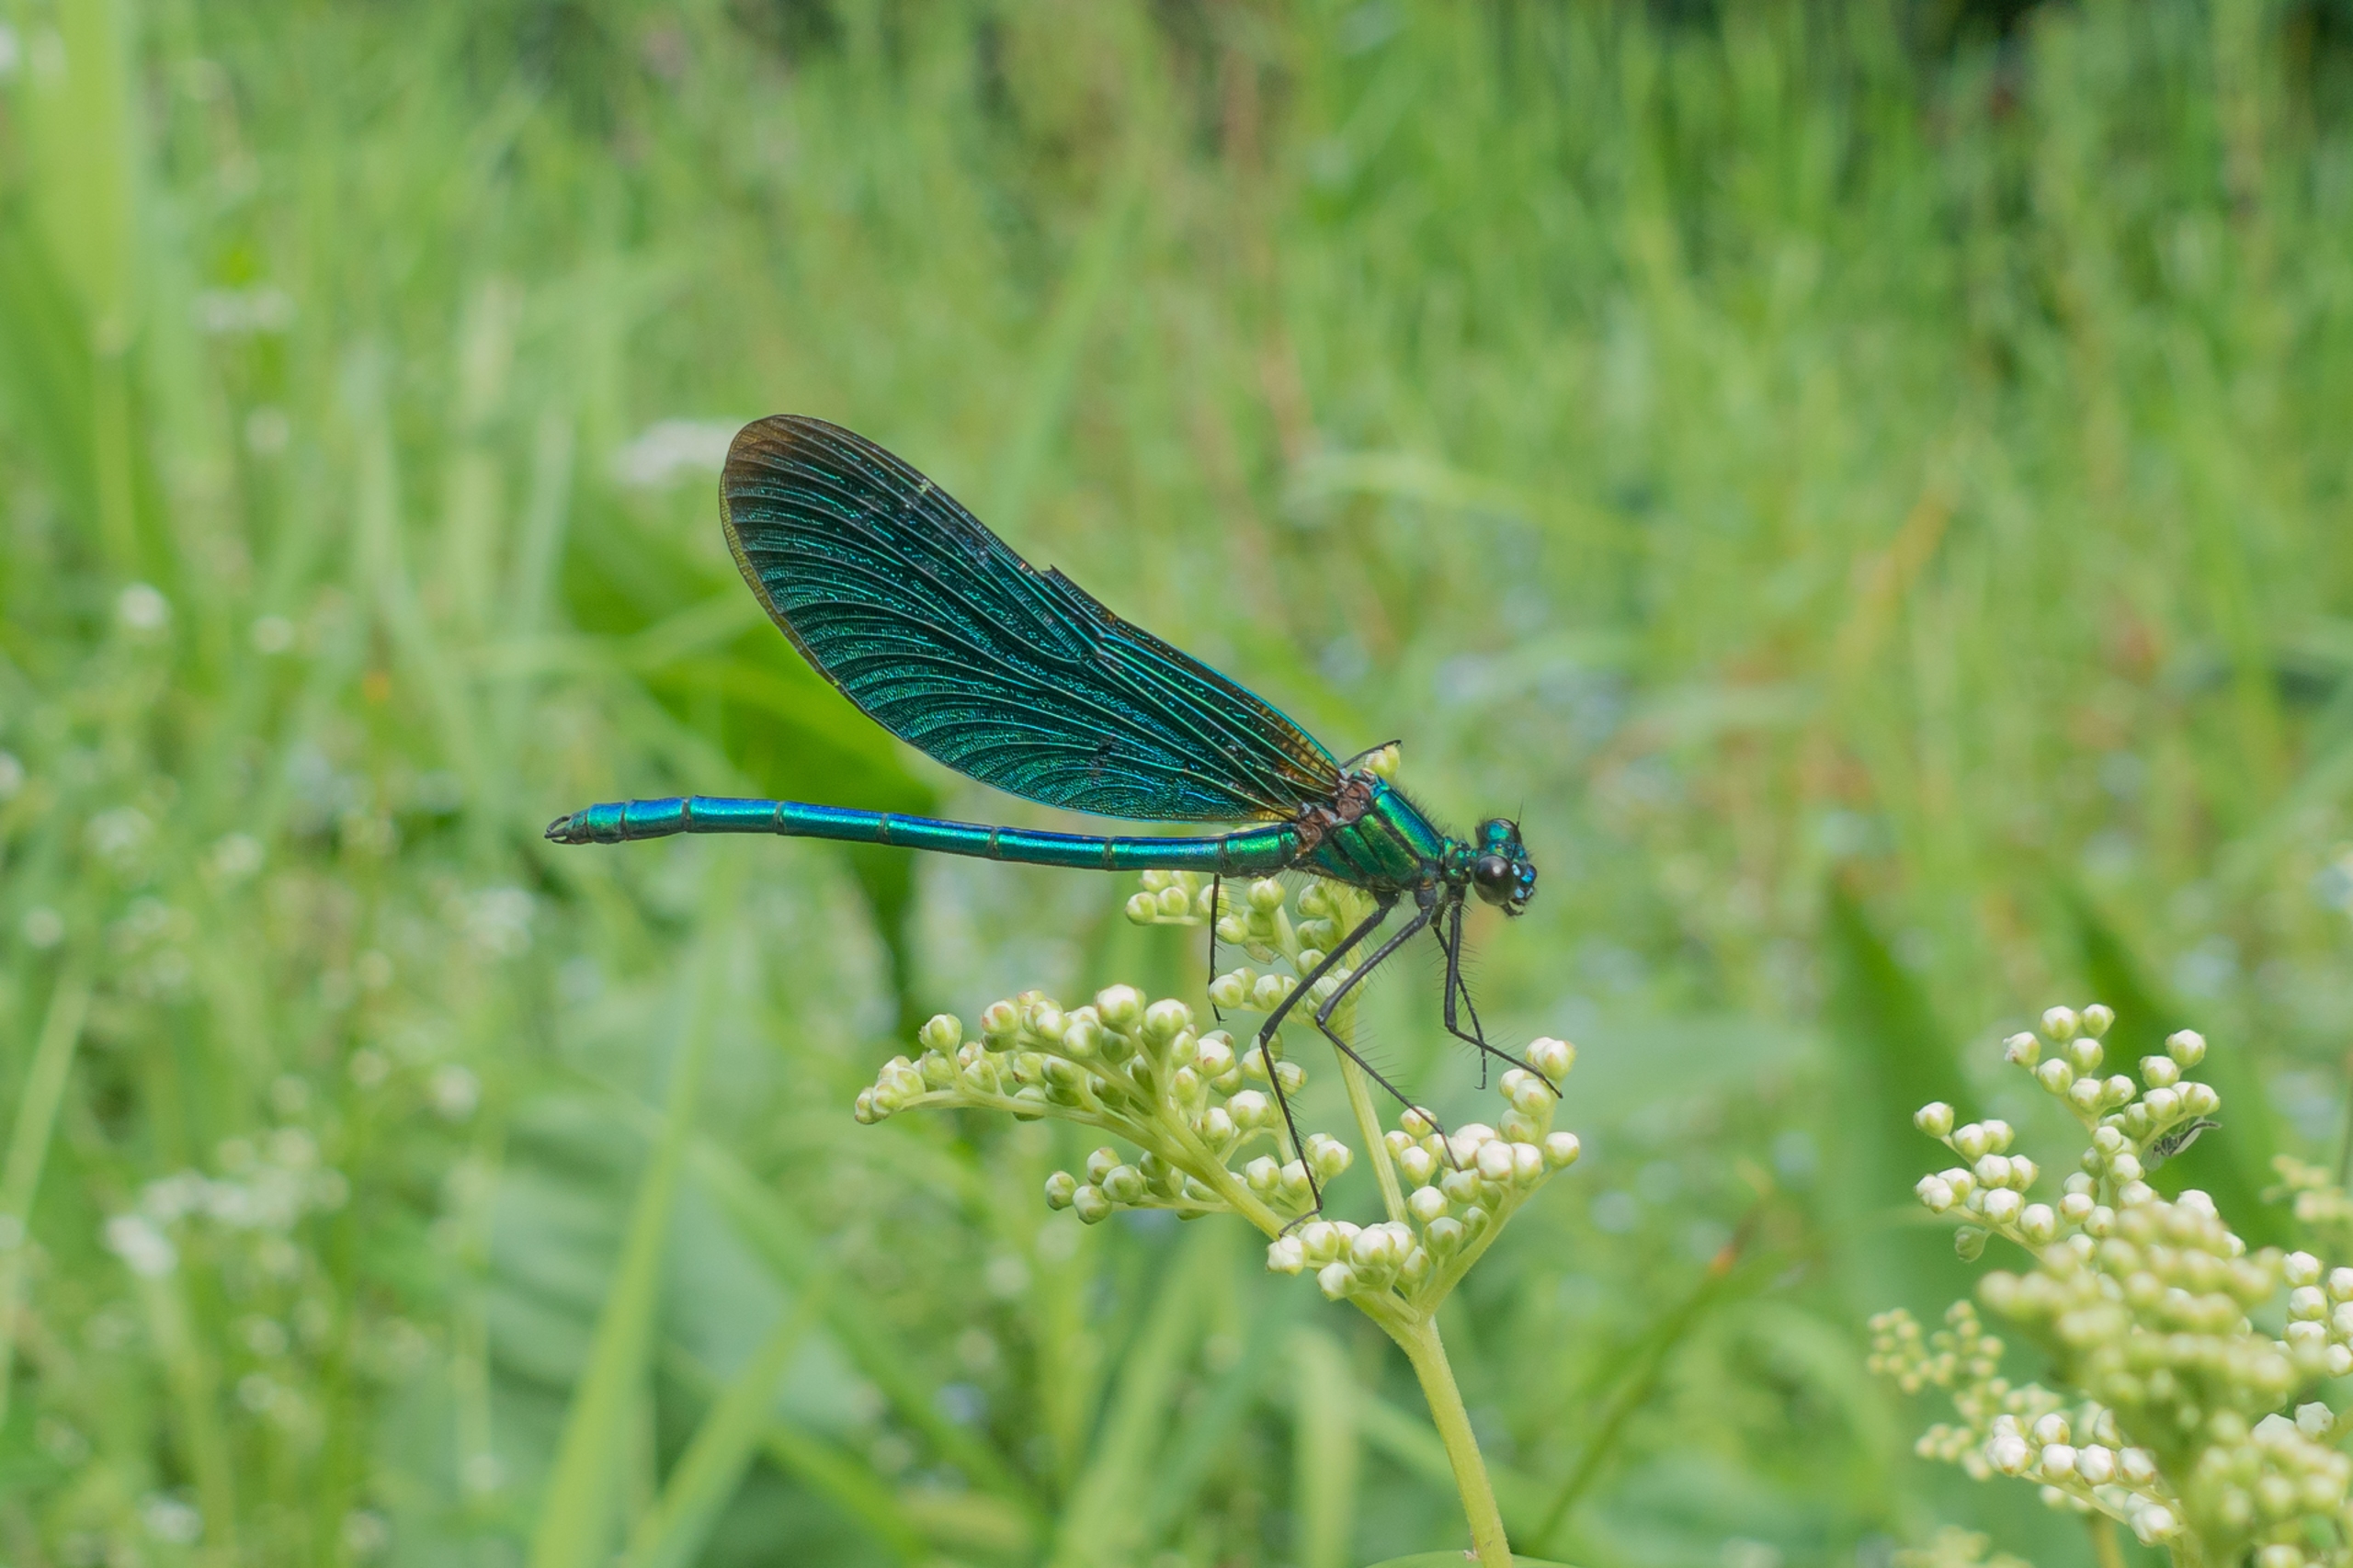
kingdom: Animalia
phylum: Arthropoda
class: Insecta
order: Odonata
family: Calopterygidae
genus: Calopteryx
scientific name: Calopteryx virgo
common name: Blåvinget pragtvandnymfe
